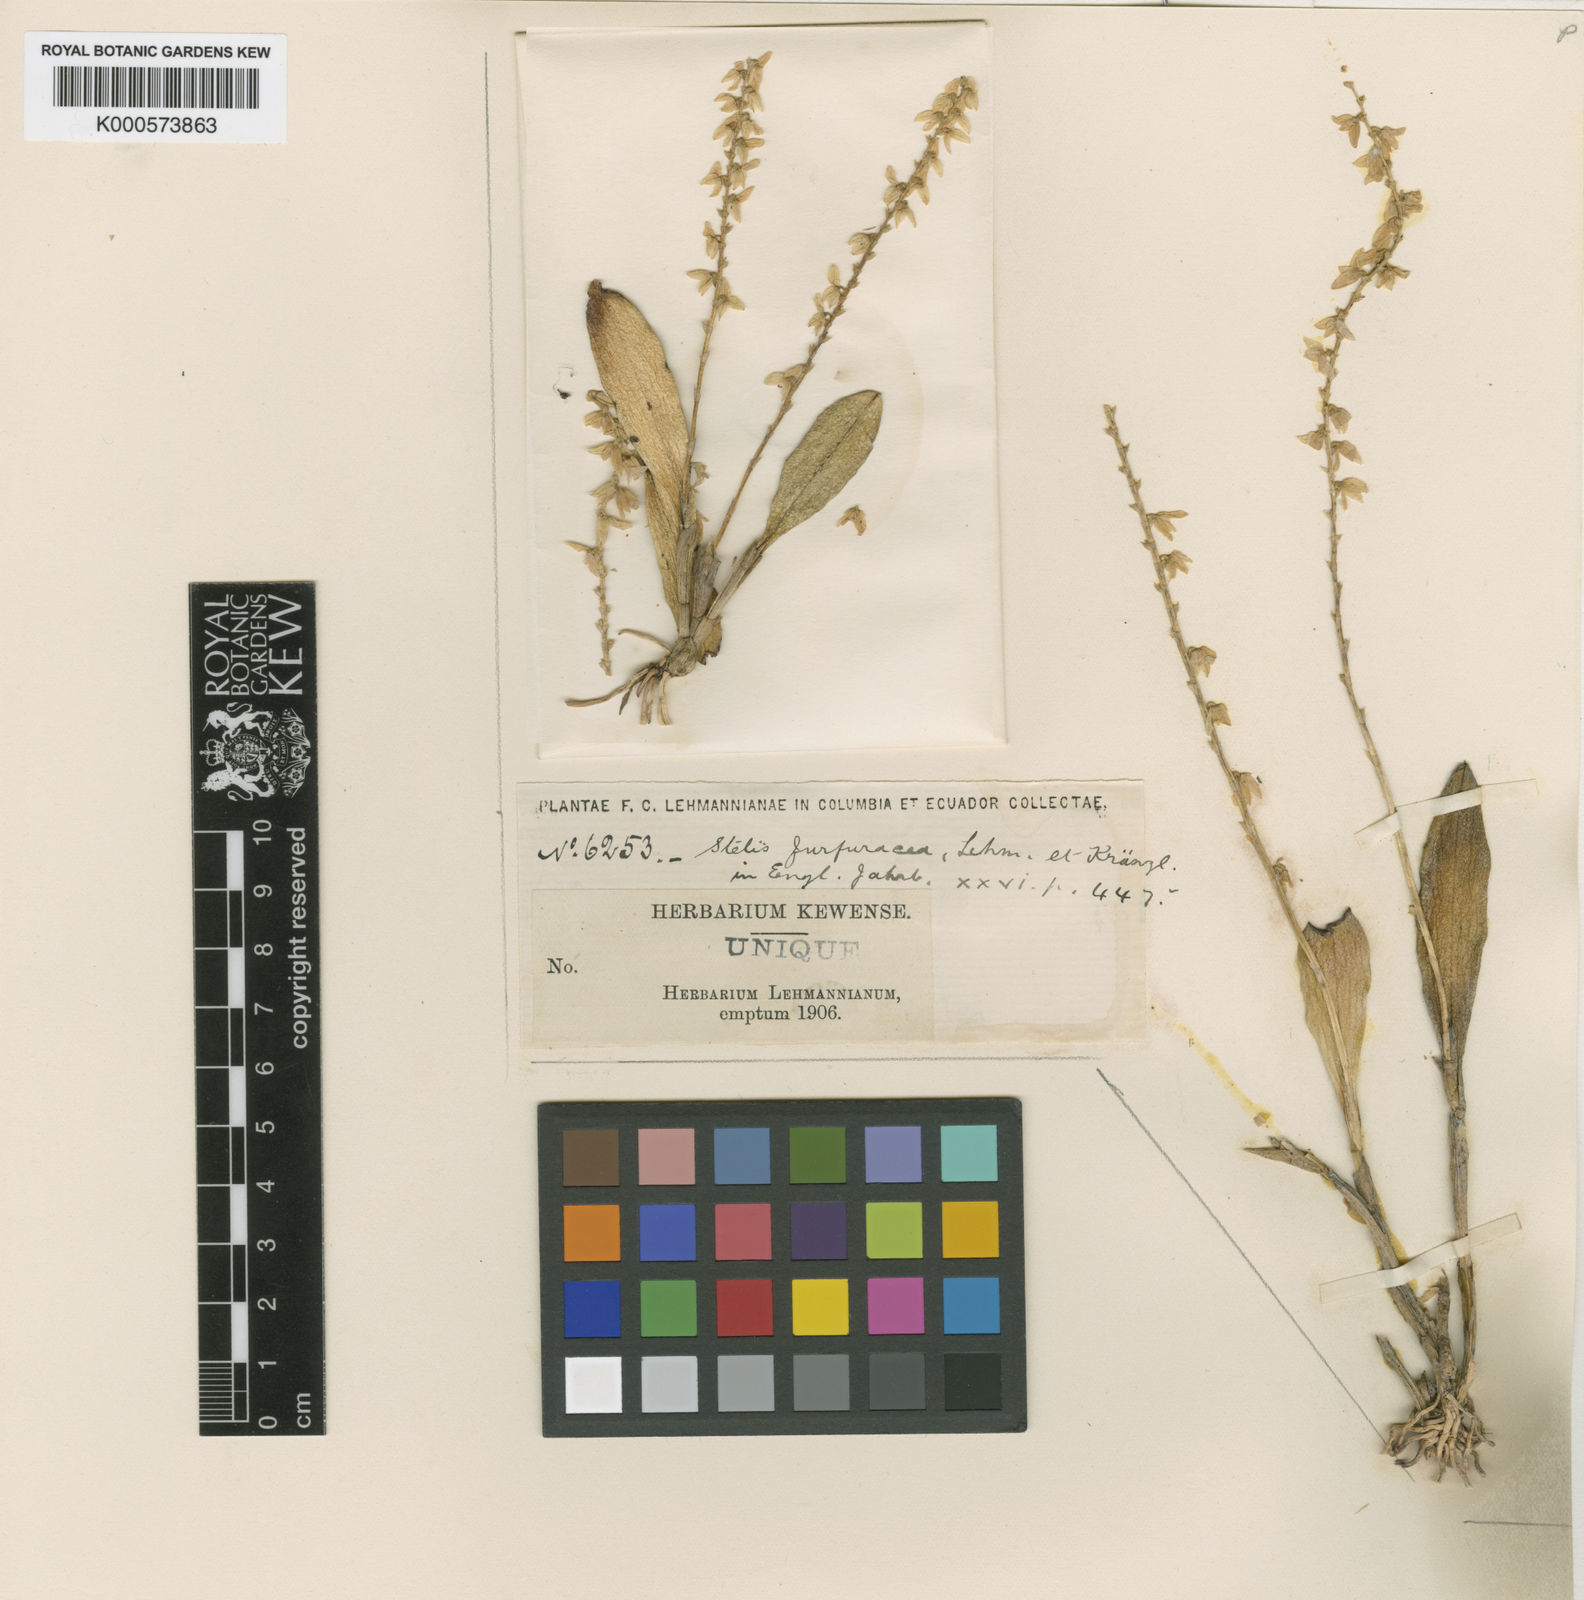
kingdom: Plantae
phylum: Tracheophyta
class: Liliopsida
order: Asparagales
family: Orchidaceae
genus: Stelis
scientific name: Stelis furfuracea
